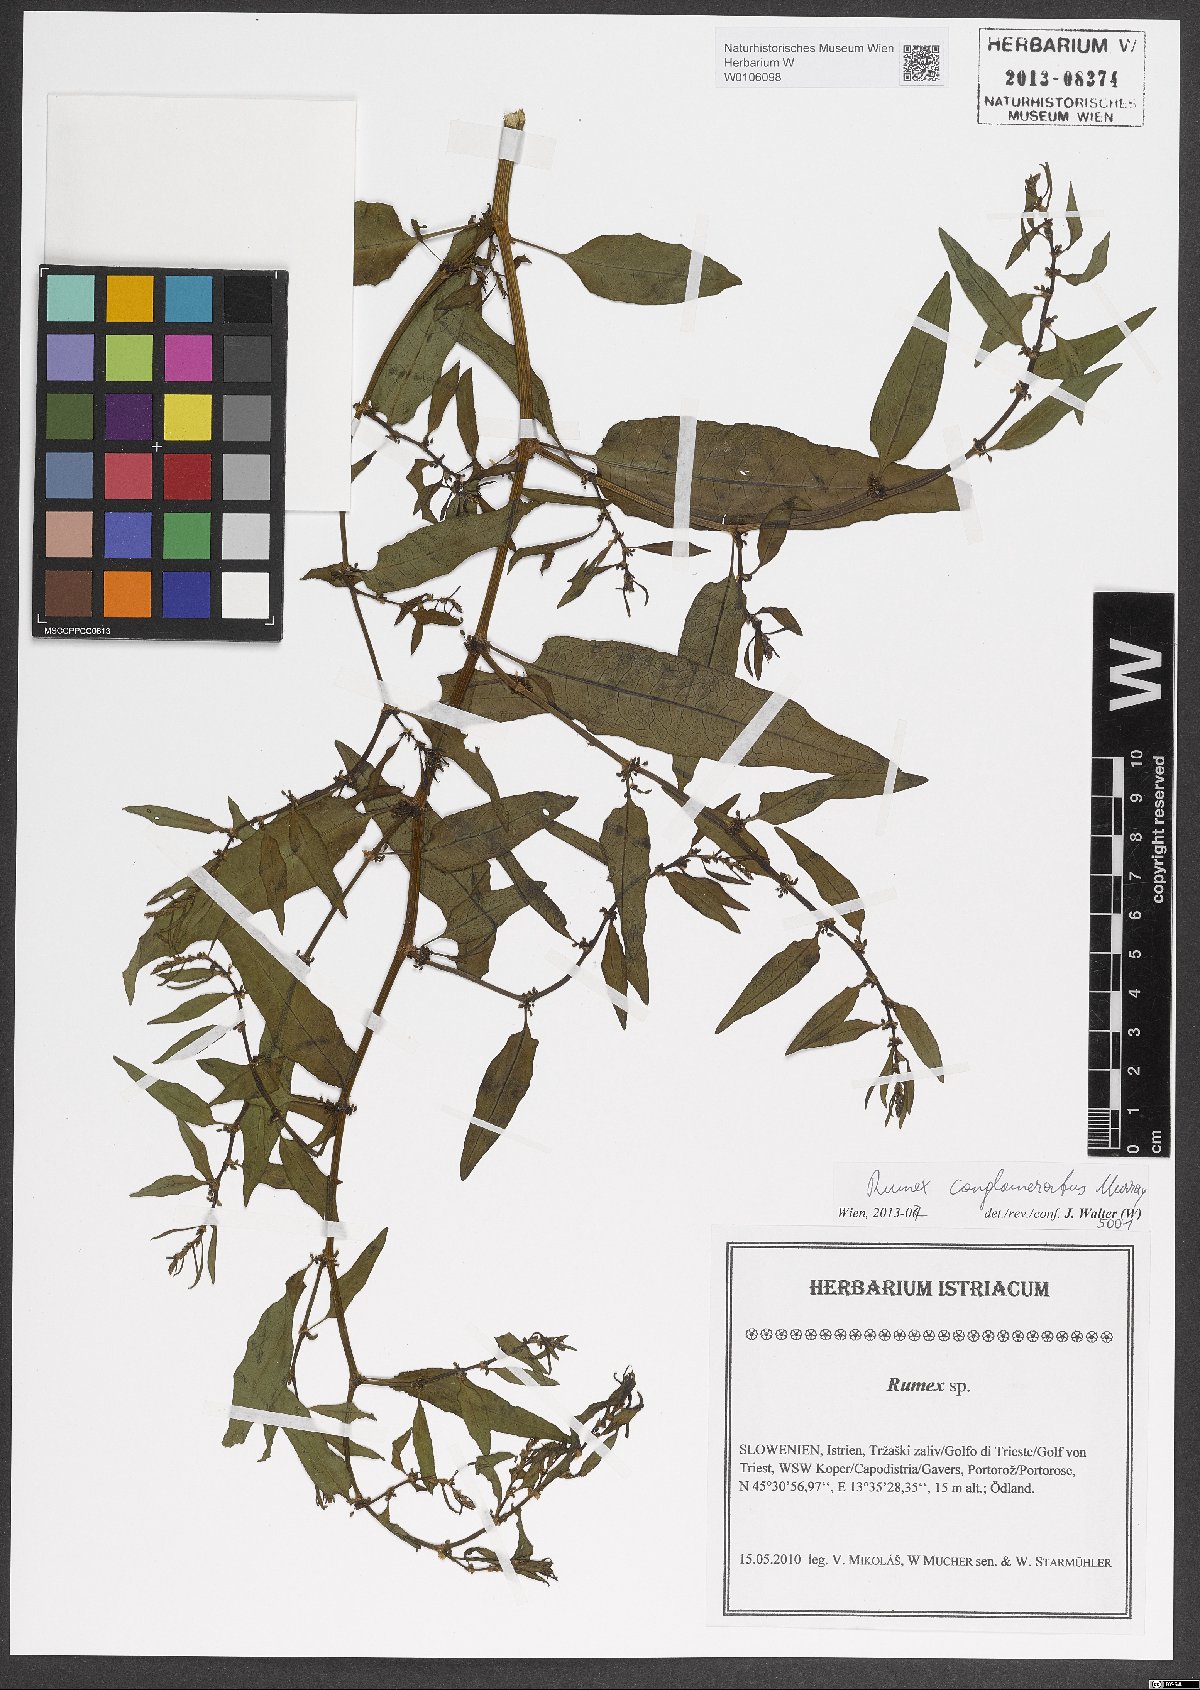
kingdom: Plantae
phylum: Tracheophyta
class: Magnoliopsida
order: Caryophyllales
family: Polygonaceae
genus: Rumex
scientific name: Rumex conglomeratus
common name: Clustered dock
